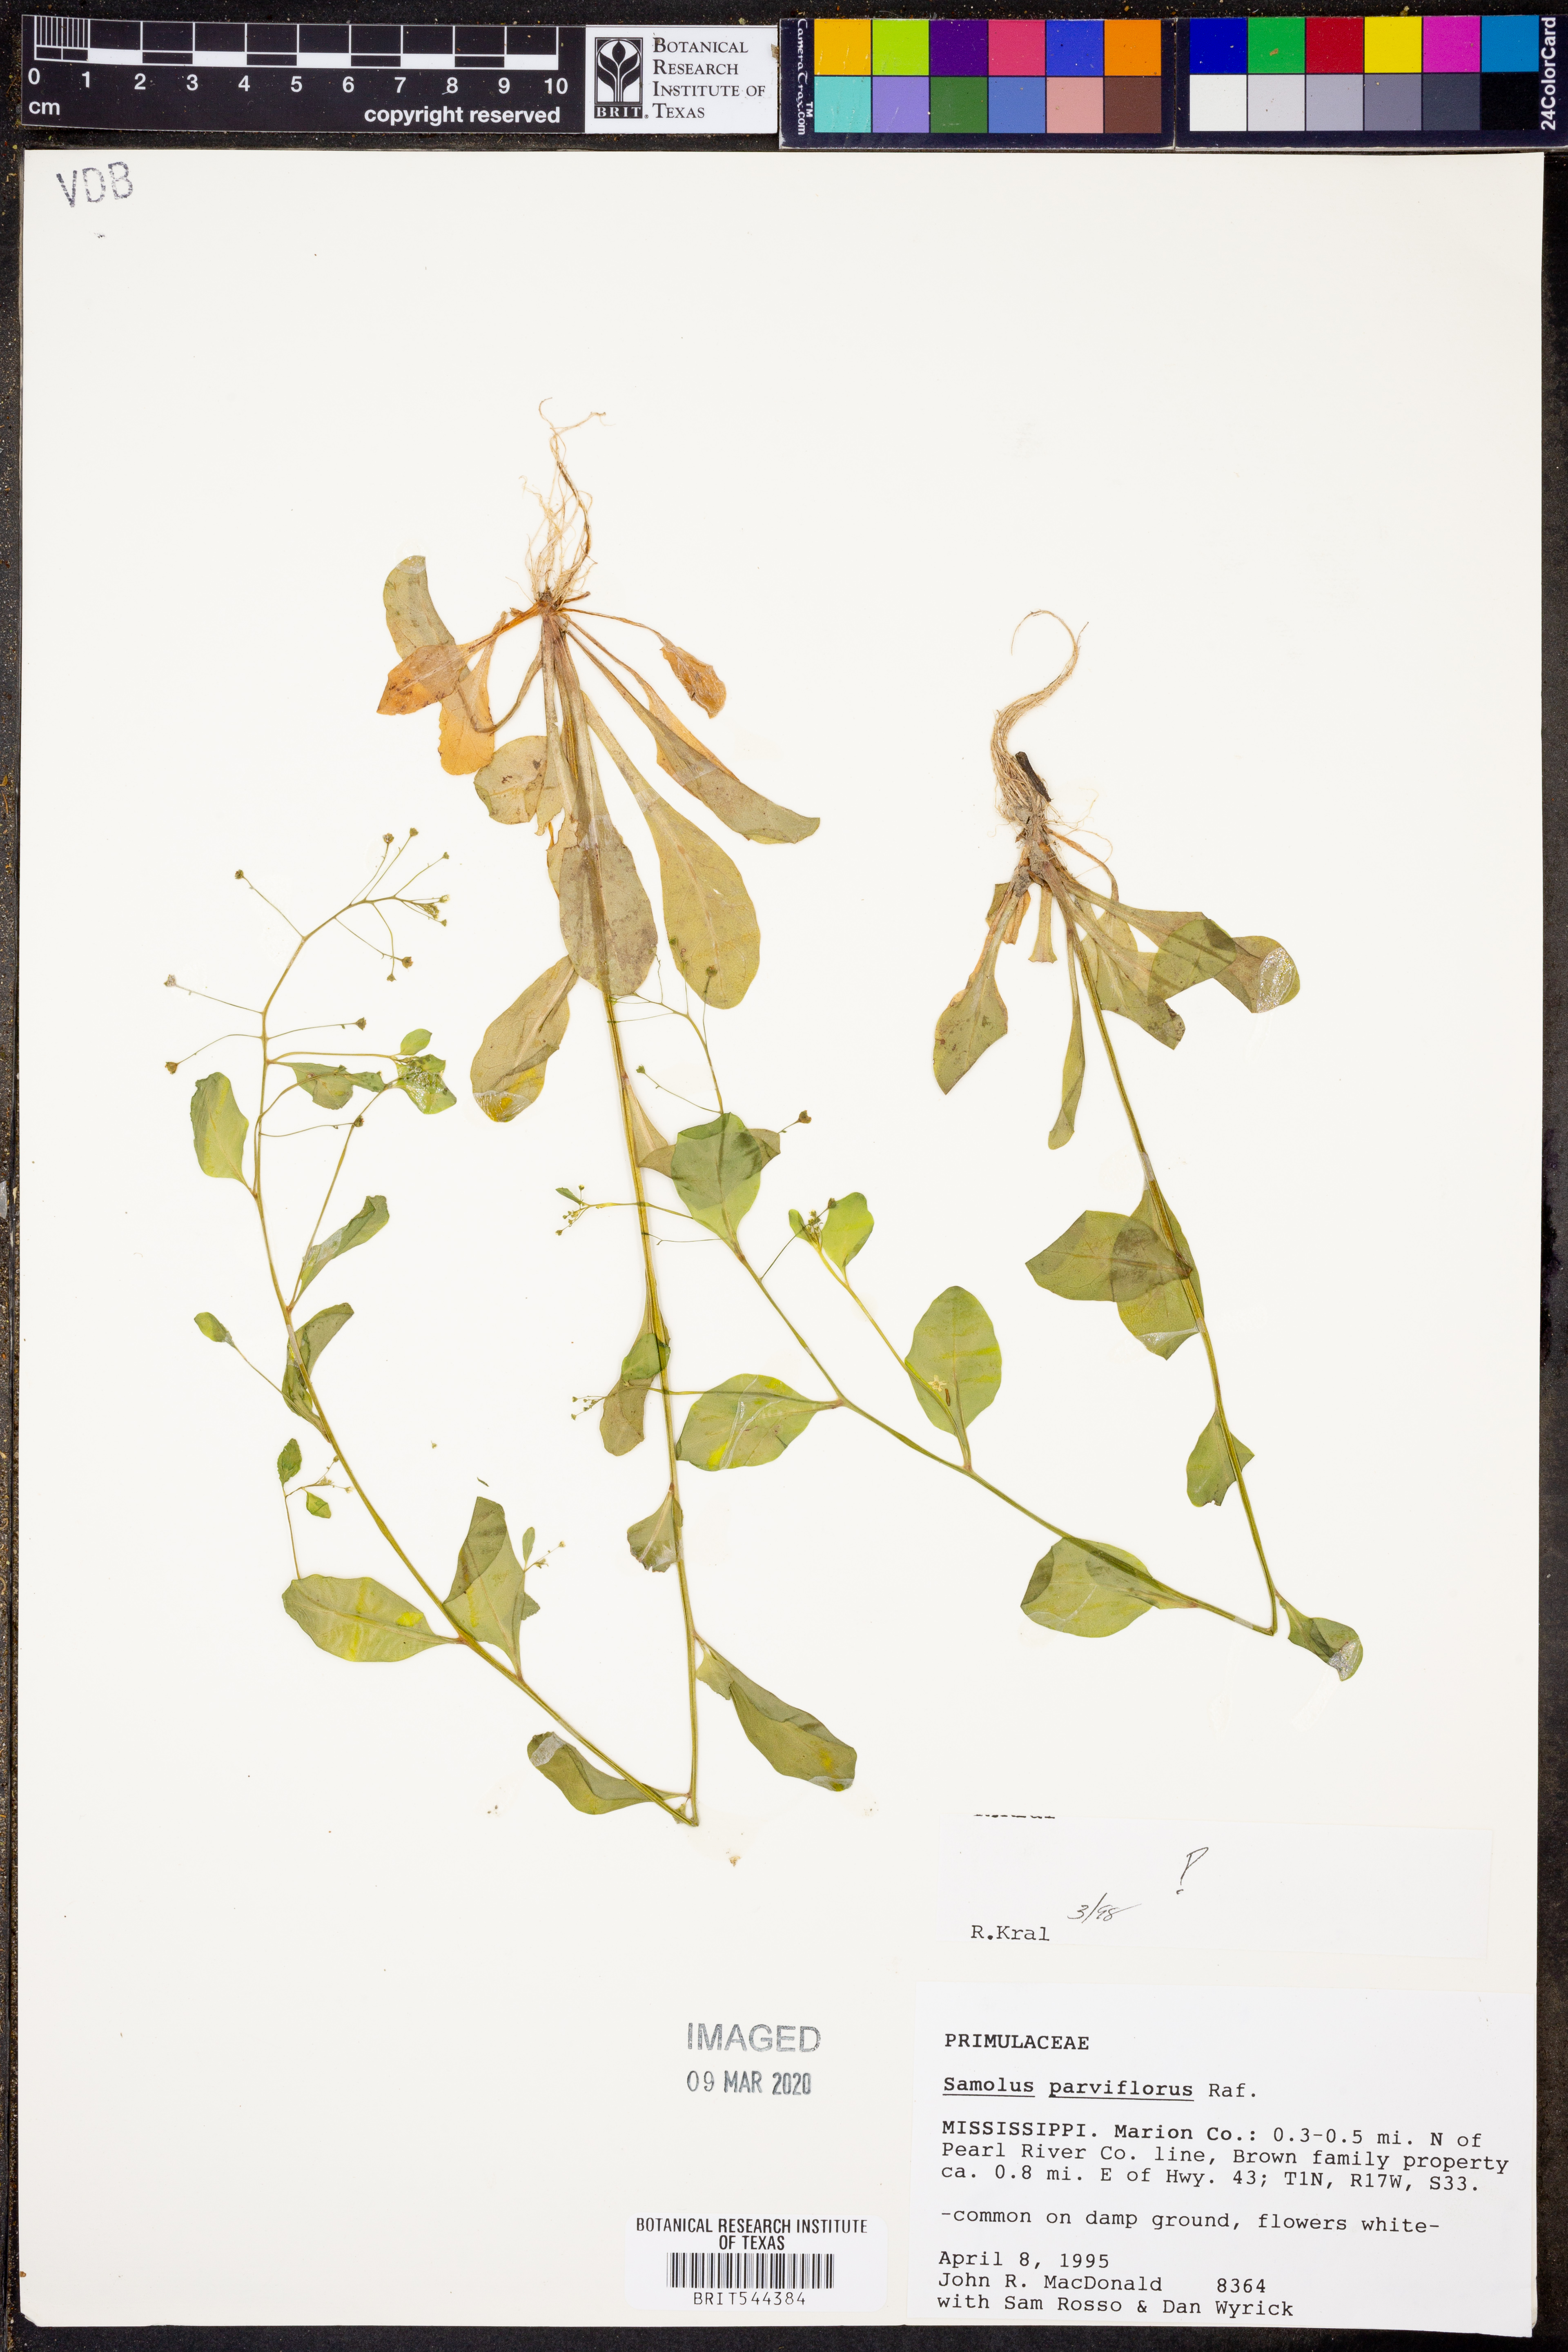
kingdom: Plantae
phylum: Tracheophyta
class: Magnoliopsida
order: Ericales
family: Primulaceae
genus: Samolus
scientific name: Samolus parviflorus
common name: False water pimpernel
